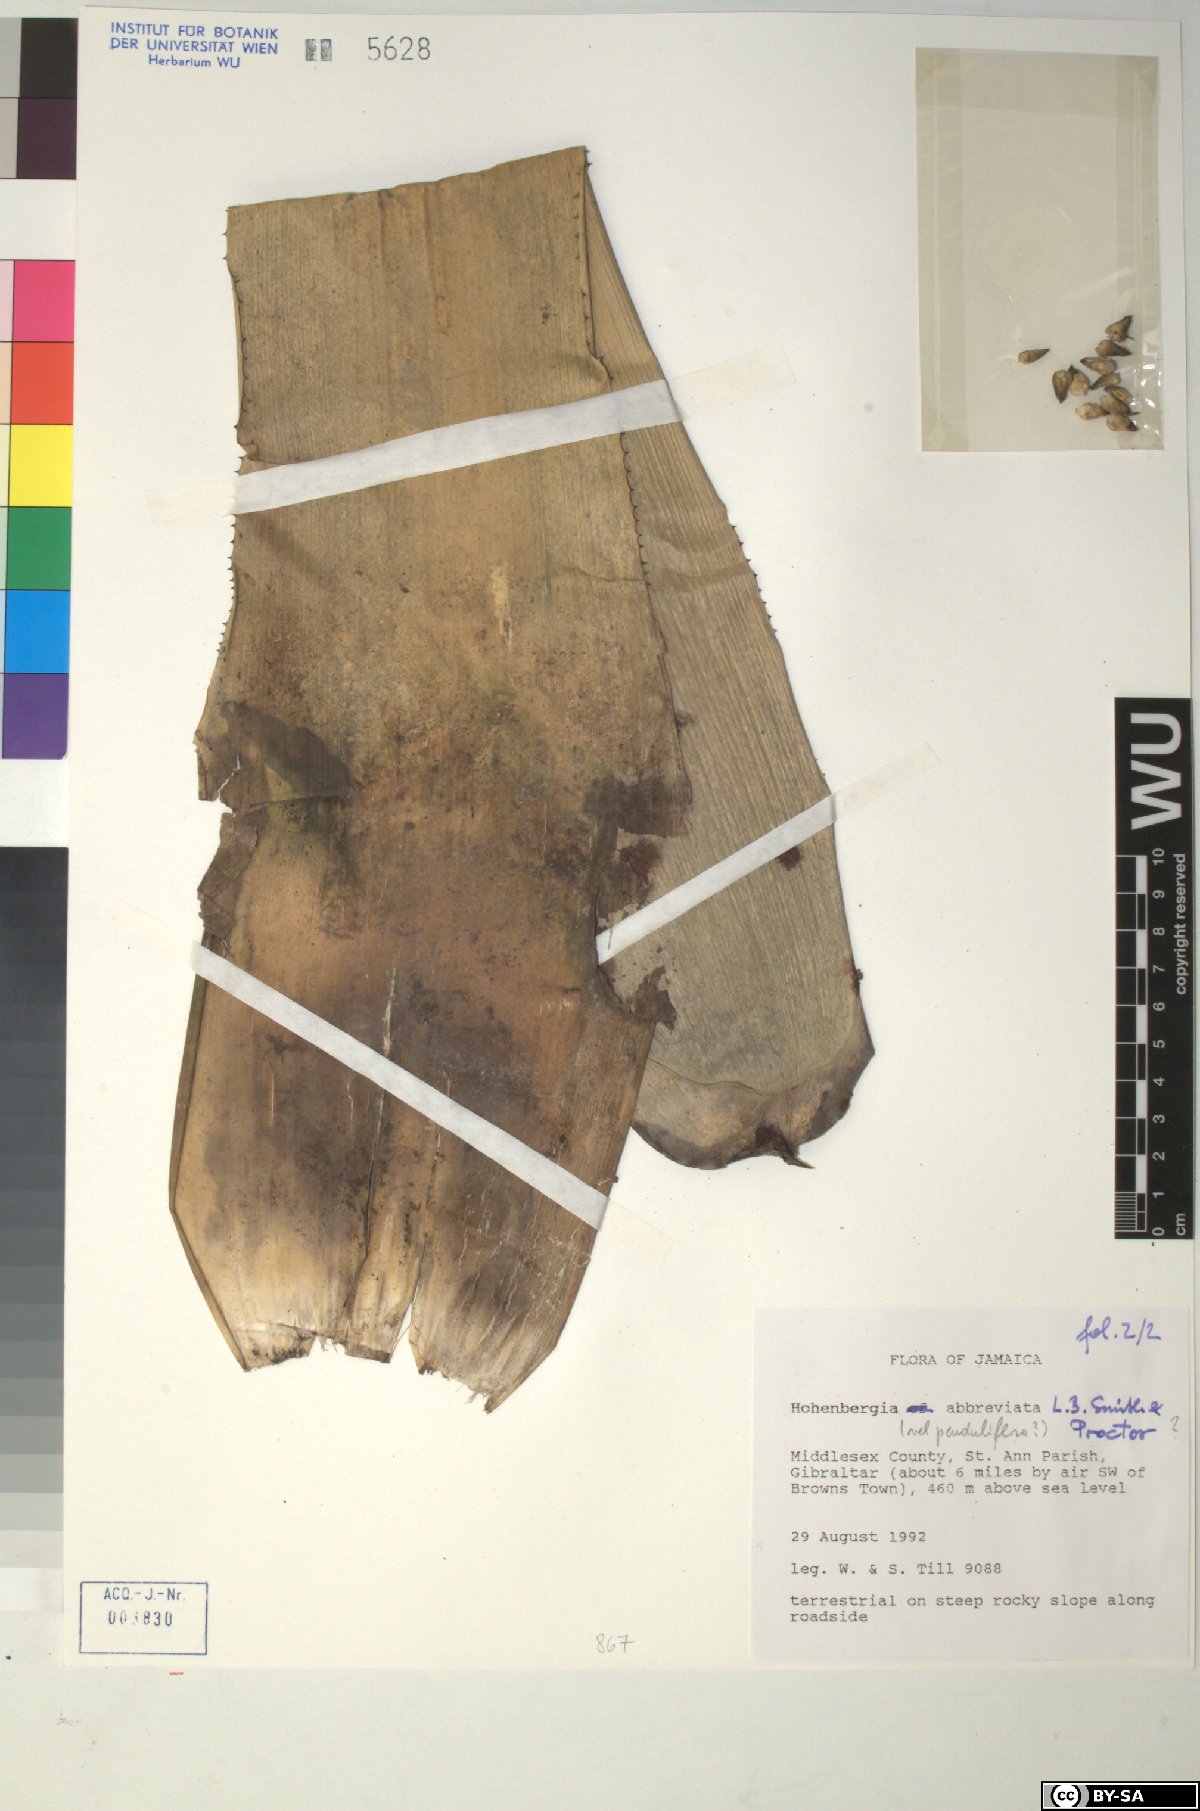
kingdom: Plantae
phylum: Tracheophyta
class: Liliopsida
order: Poales
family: Bromeliaceae
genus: Wittmackia
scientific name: Wittmackia abbreviata
